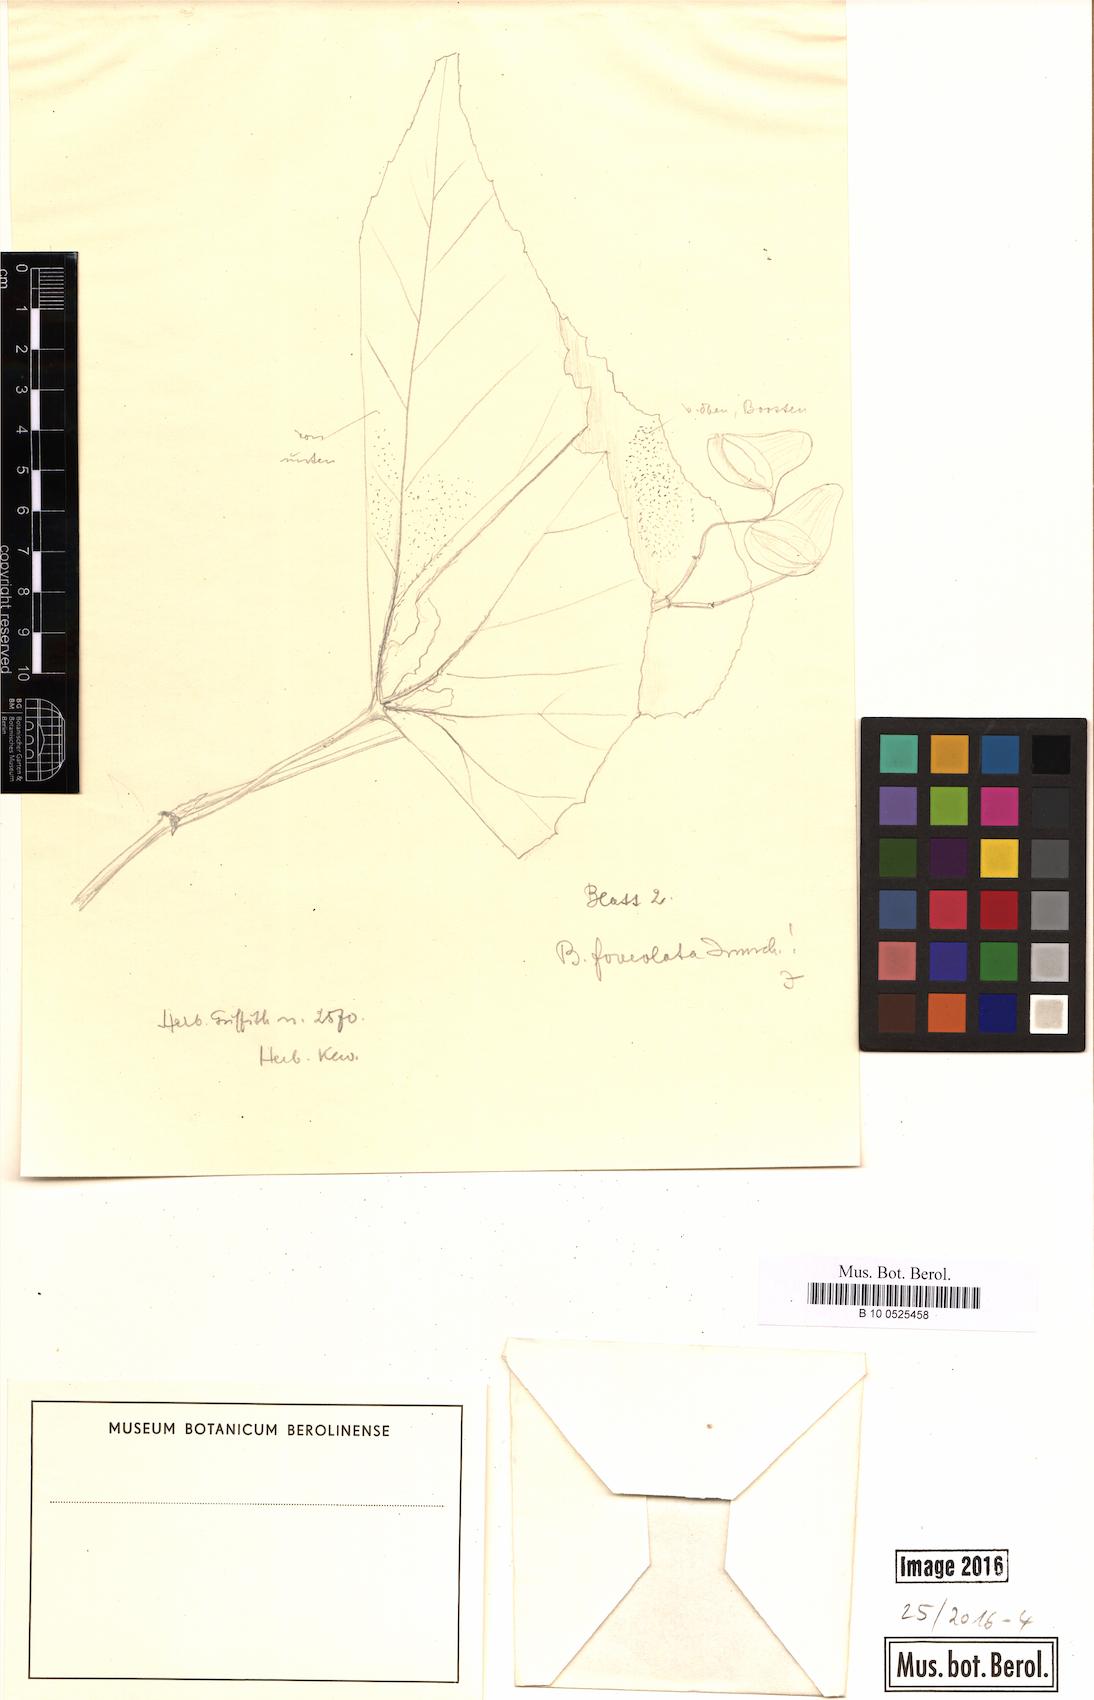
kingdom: Plantae
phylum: Tracheophyta
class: Magnoliopsida
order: Cucurbitales
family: Begoniaceae
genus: Begonia
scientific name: Begonia foveolata
